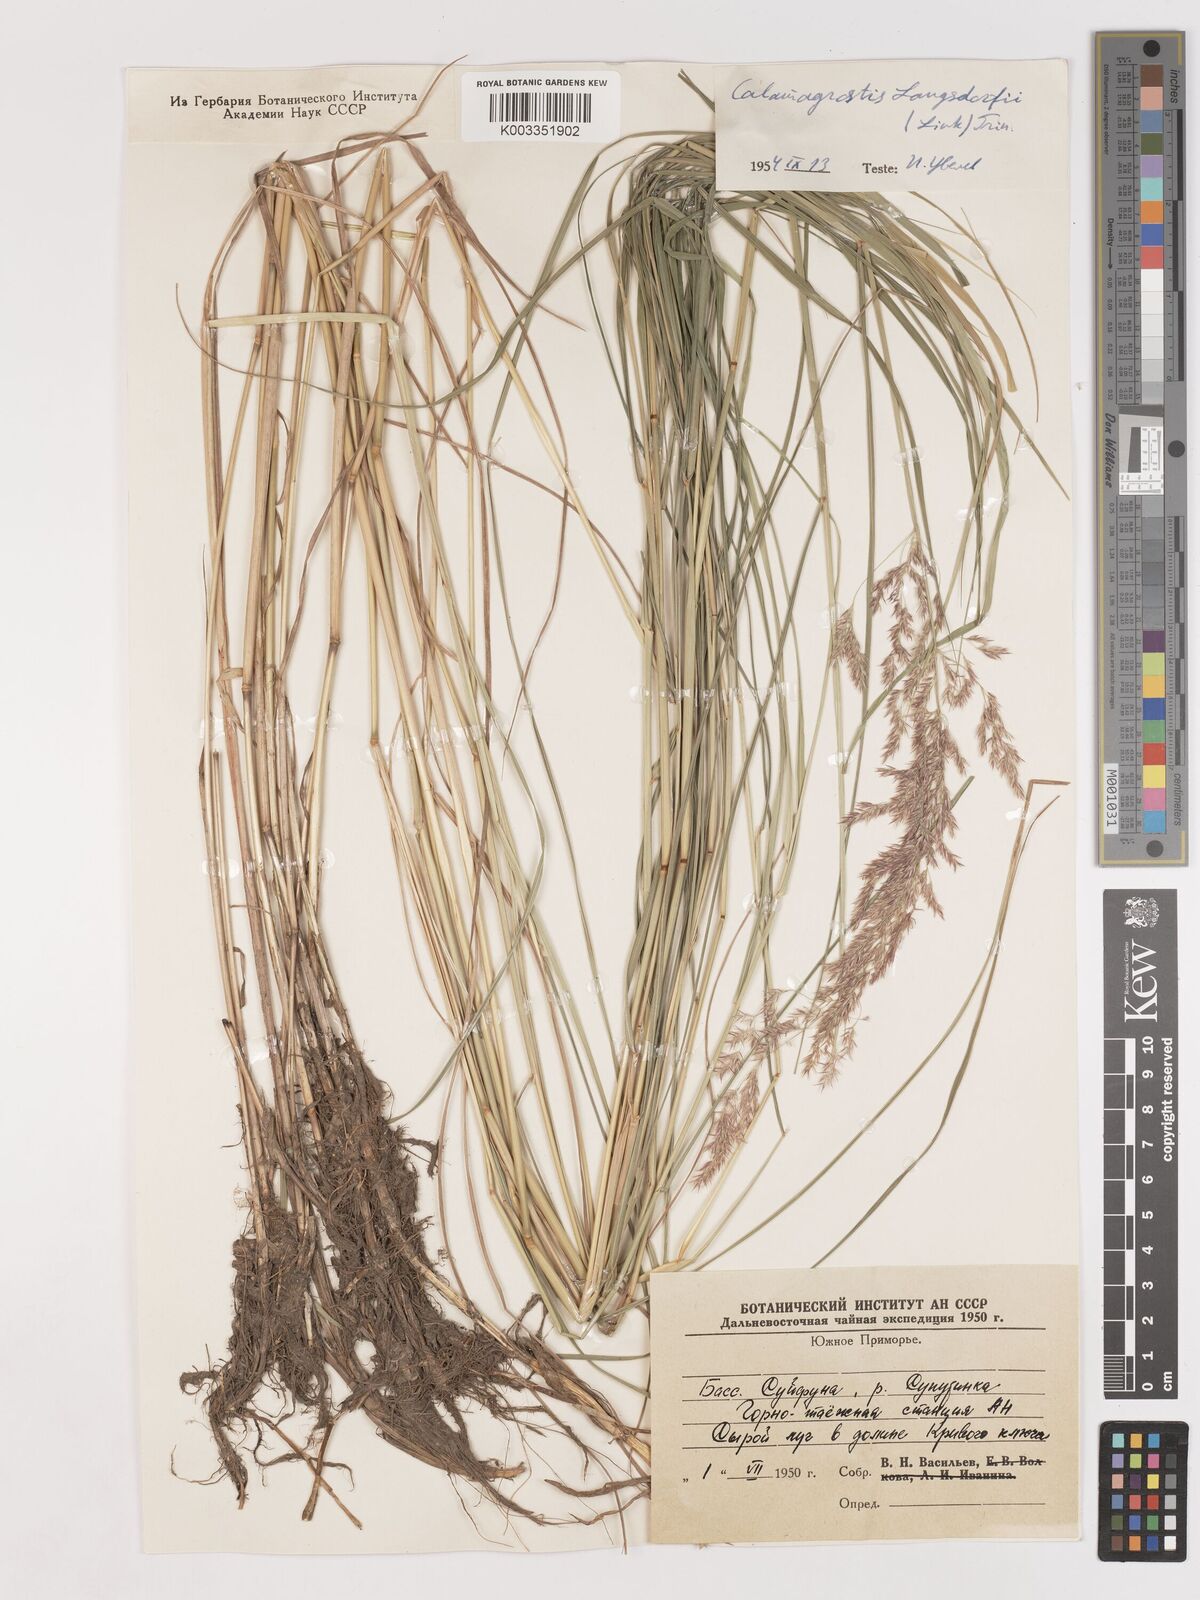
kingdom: Plantae
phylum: Tracheophyta
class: Liliopsida
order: Poales
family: Poaceae
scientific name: Poaceae
